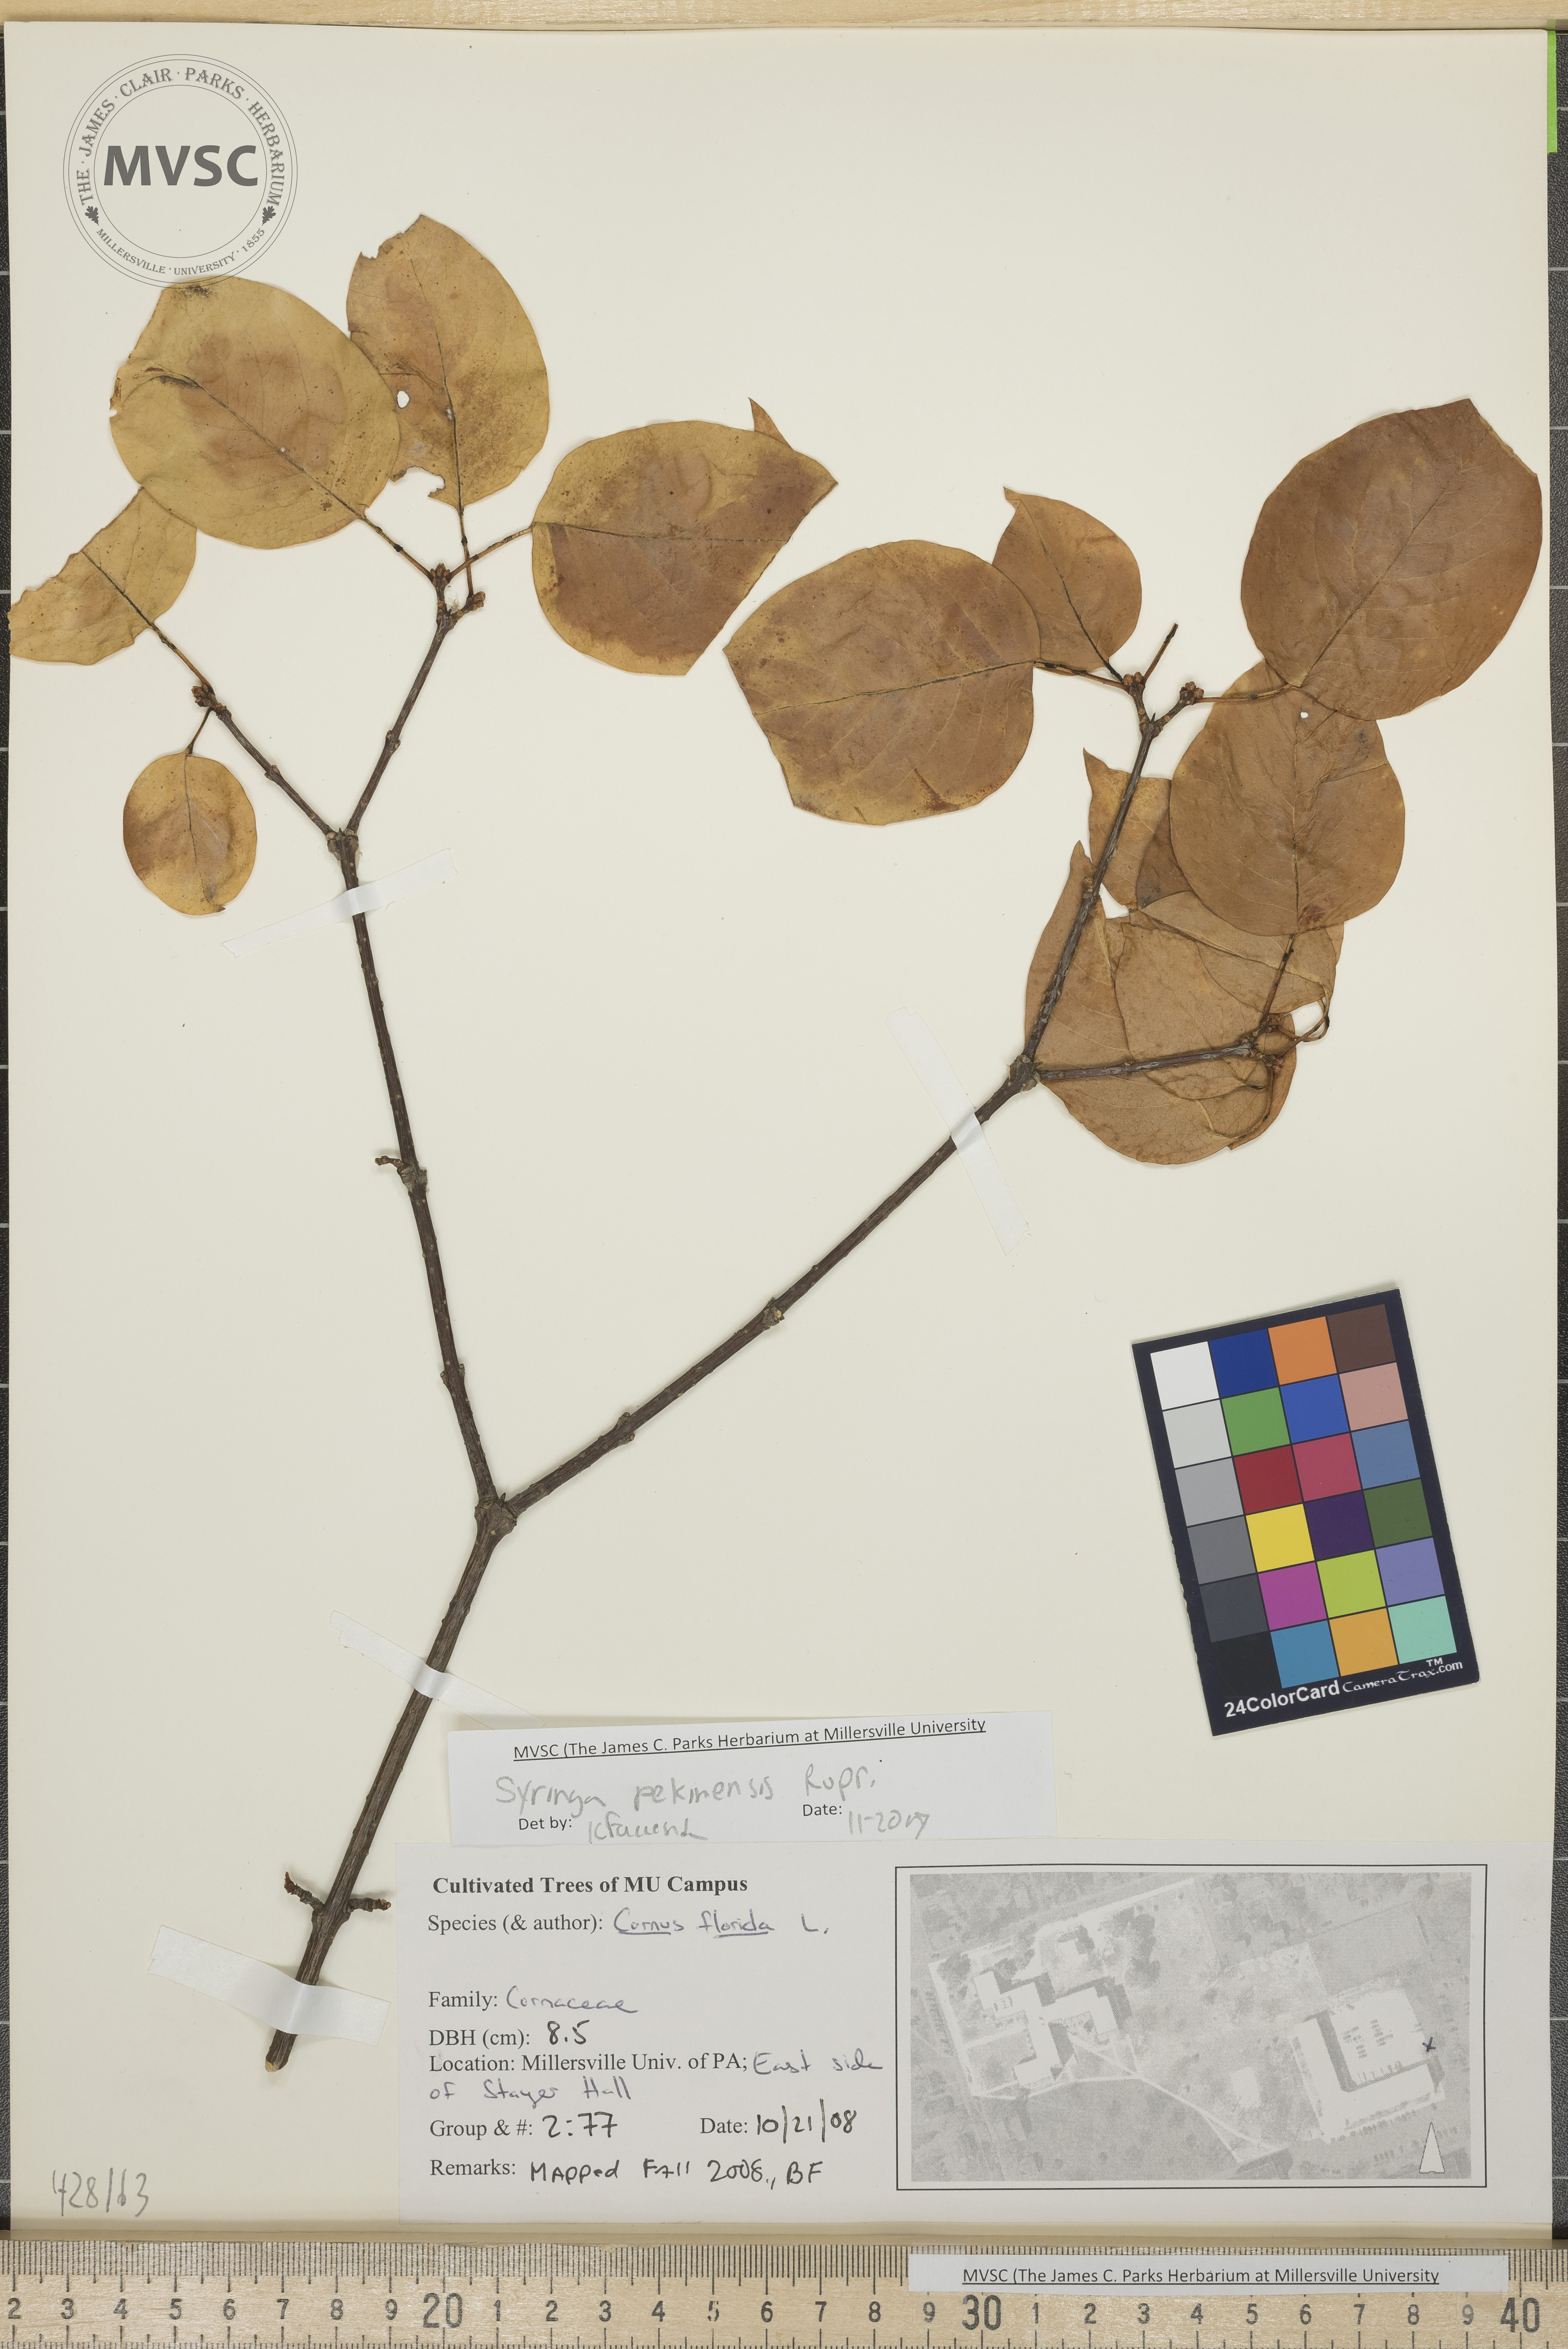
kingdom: Plantae
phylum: Tracheophyta
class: Magnoliopsida
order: Lamiales
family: Oleaceae
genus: Syringa
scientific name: Syringa reticulata
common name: Lilac
